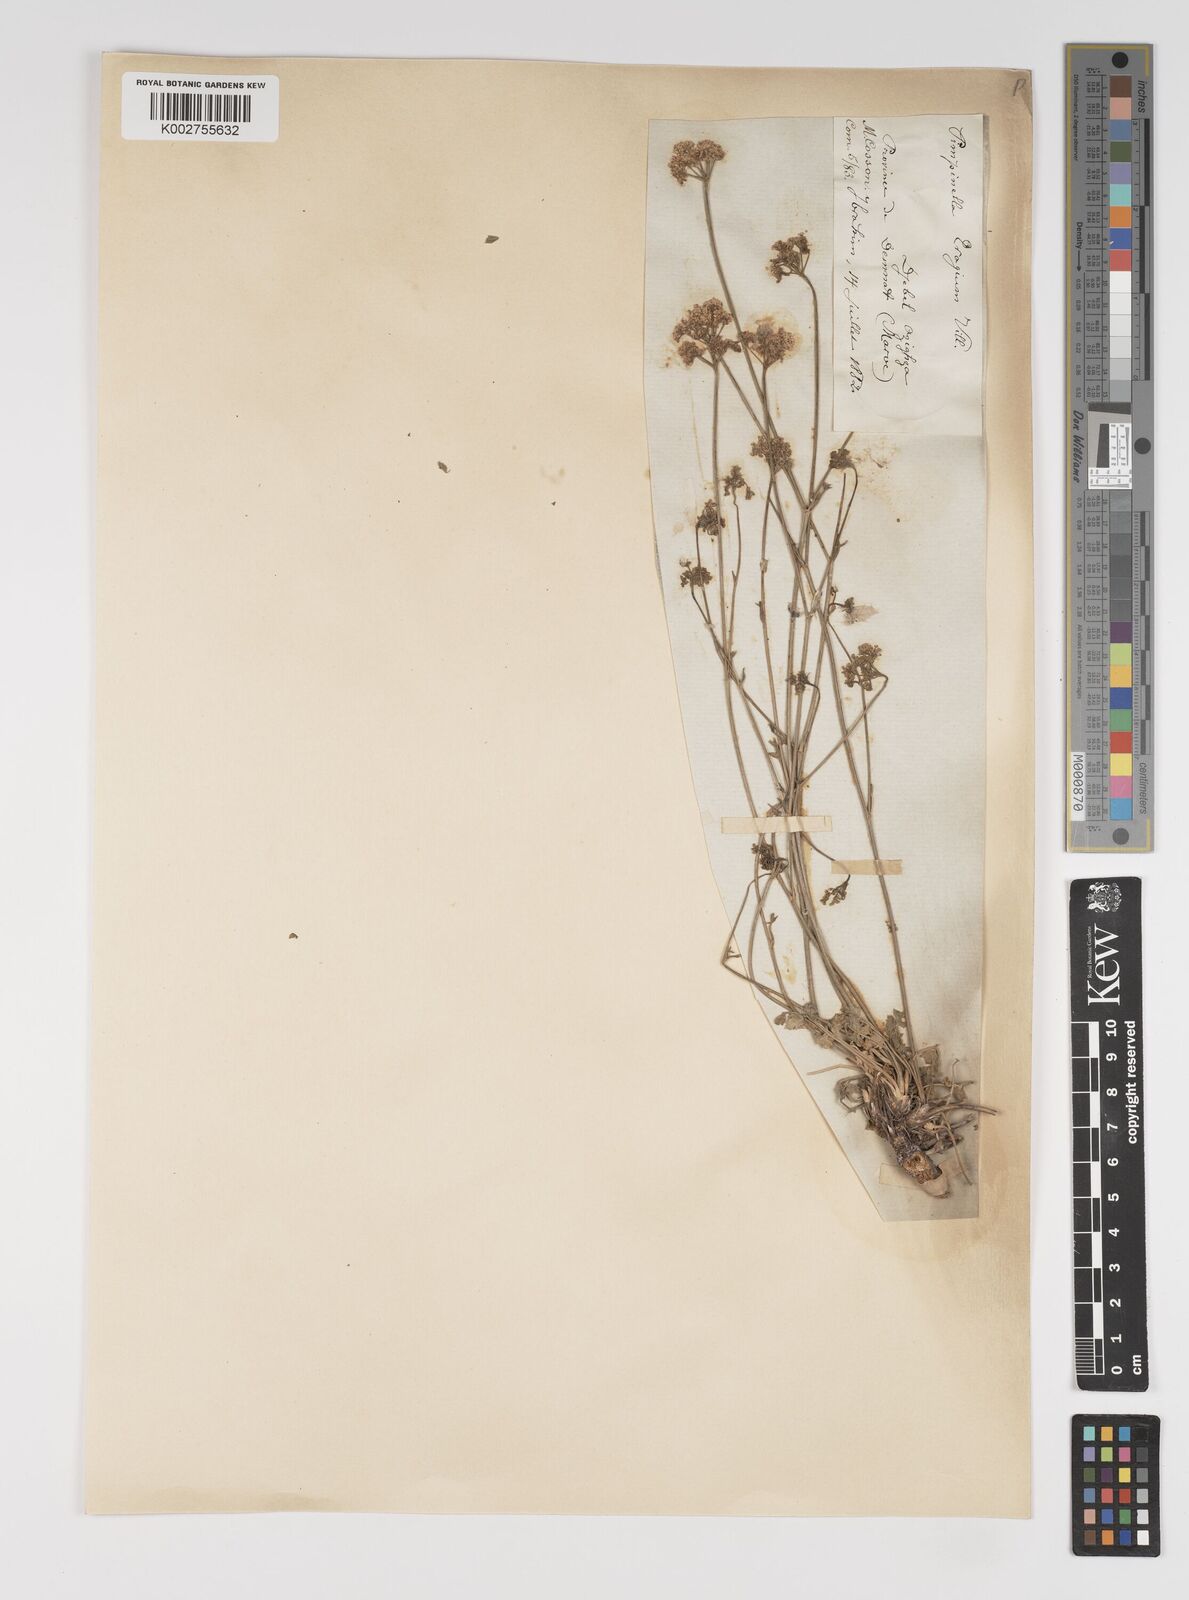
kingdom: Plantae
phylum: Tracheophyta
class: Magnoliopsida
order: Apiales
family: Apiaceae
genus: Pimpinella
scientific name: Pimpinella tragium
